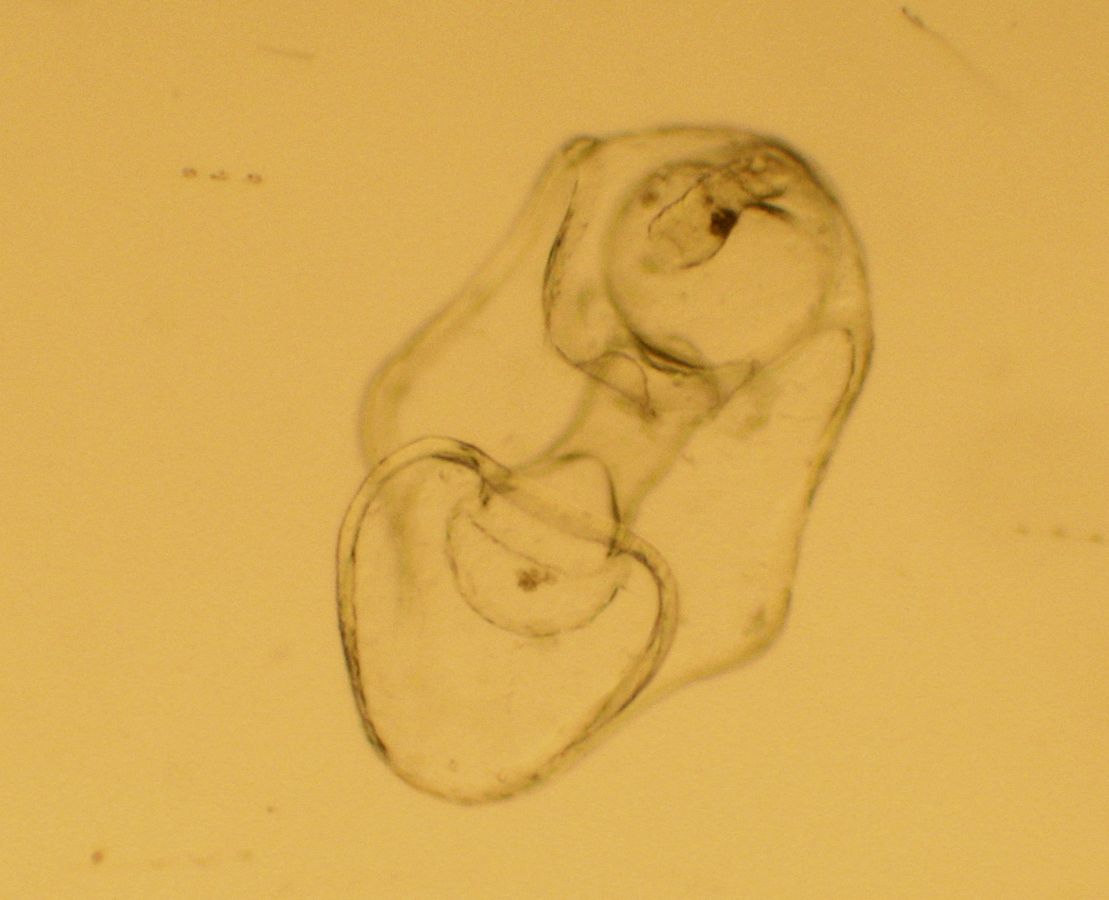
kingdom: Animalia
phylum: Echinodermata
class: Asteroidea
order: Forcipulatida
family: Asteriidae
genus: Asterias
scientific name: Asterias rubens
